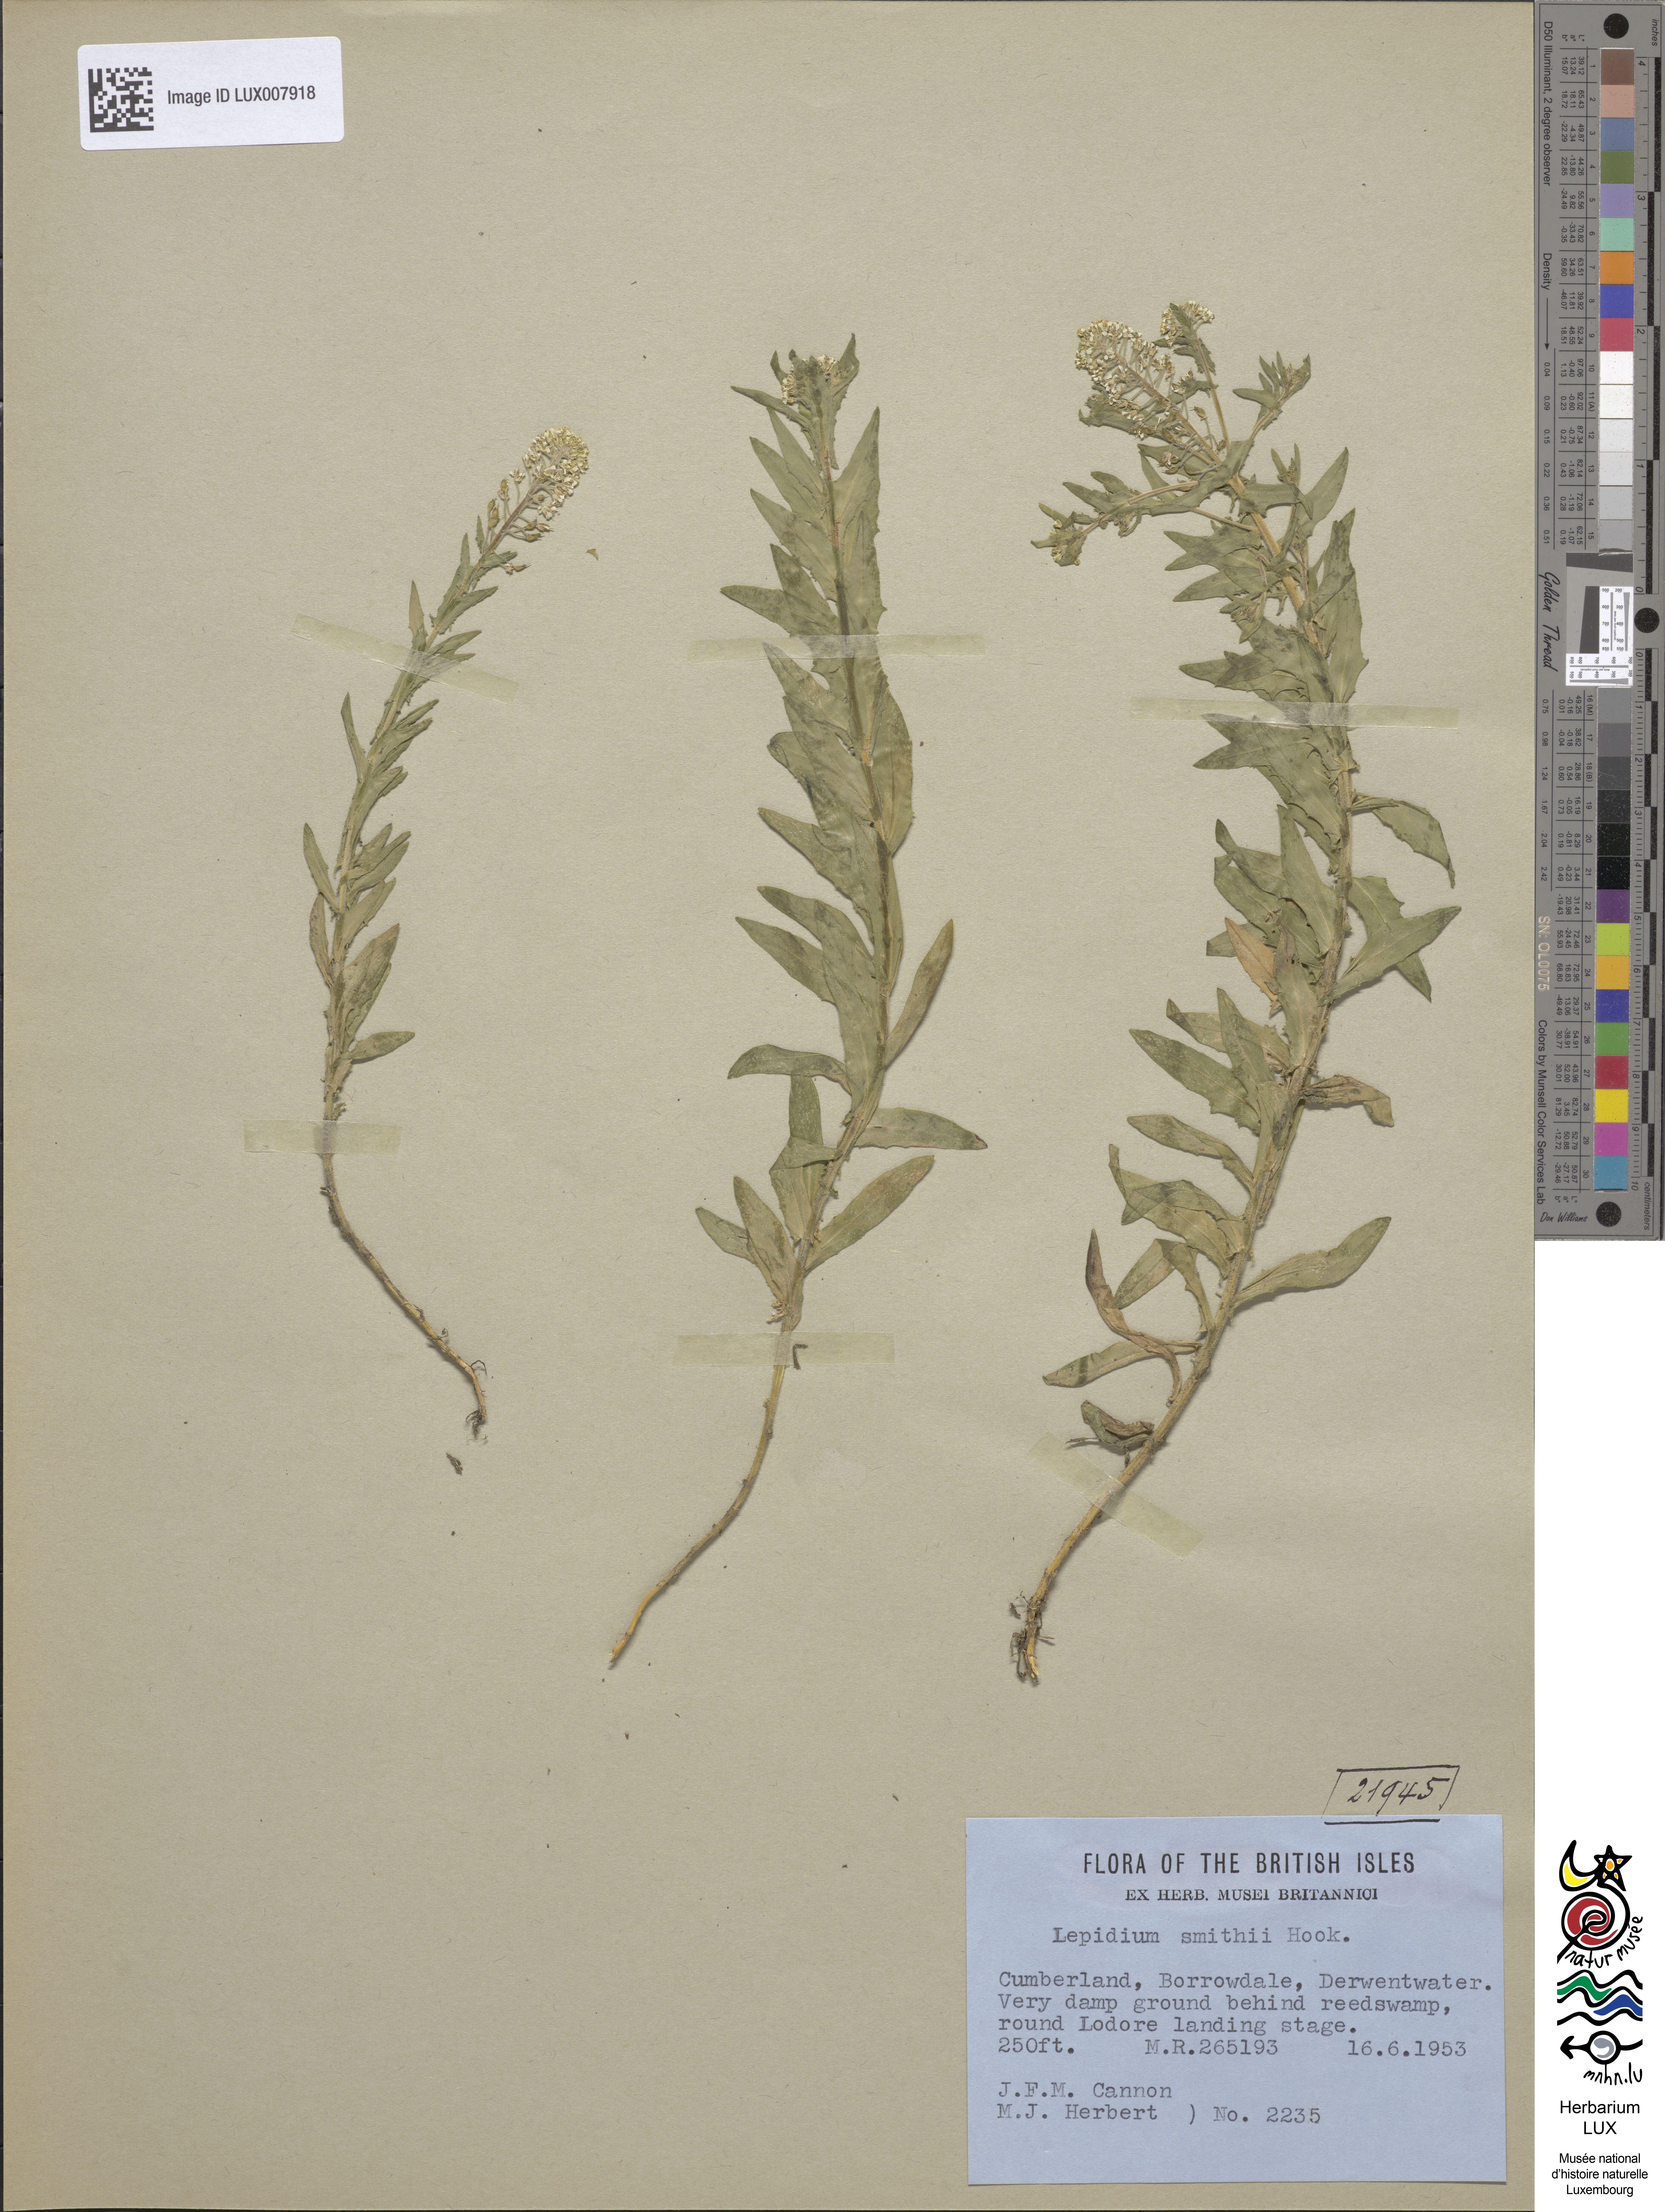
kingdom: Plantae
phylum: Tracheophyta
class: Magnoliopsida
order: Brassicales
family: Brassicaceae
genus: Lepidium
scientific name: Lepidium heterophyllum
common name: Smith's pepperwort
